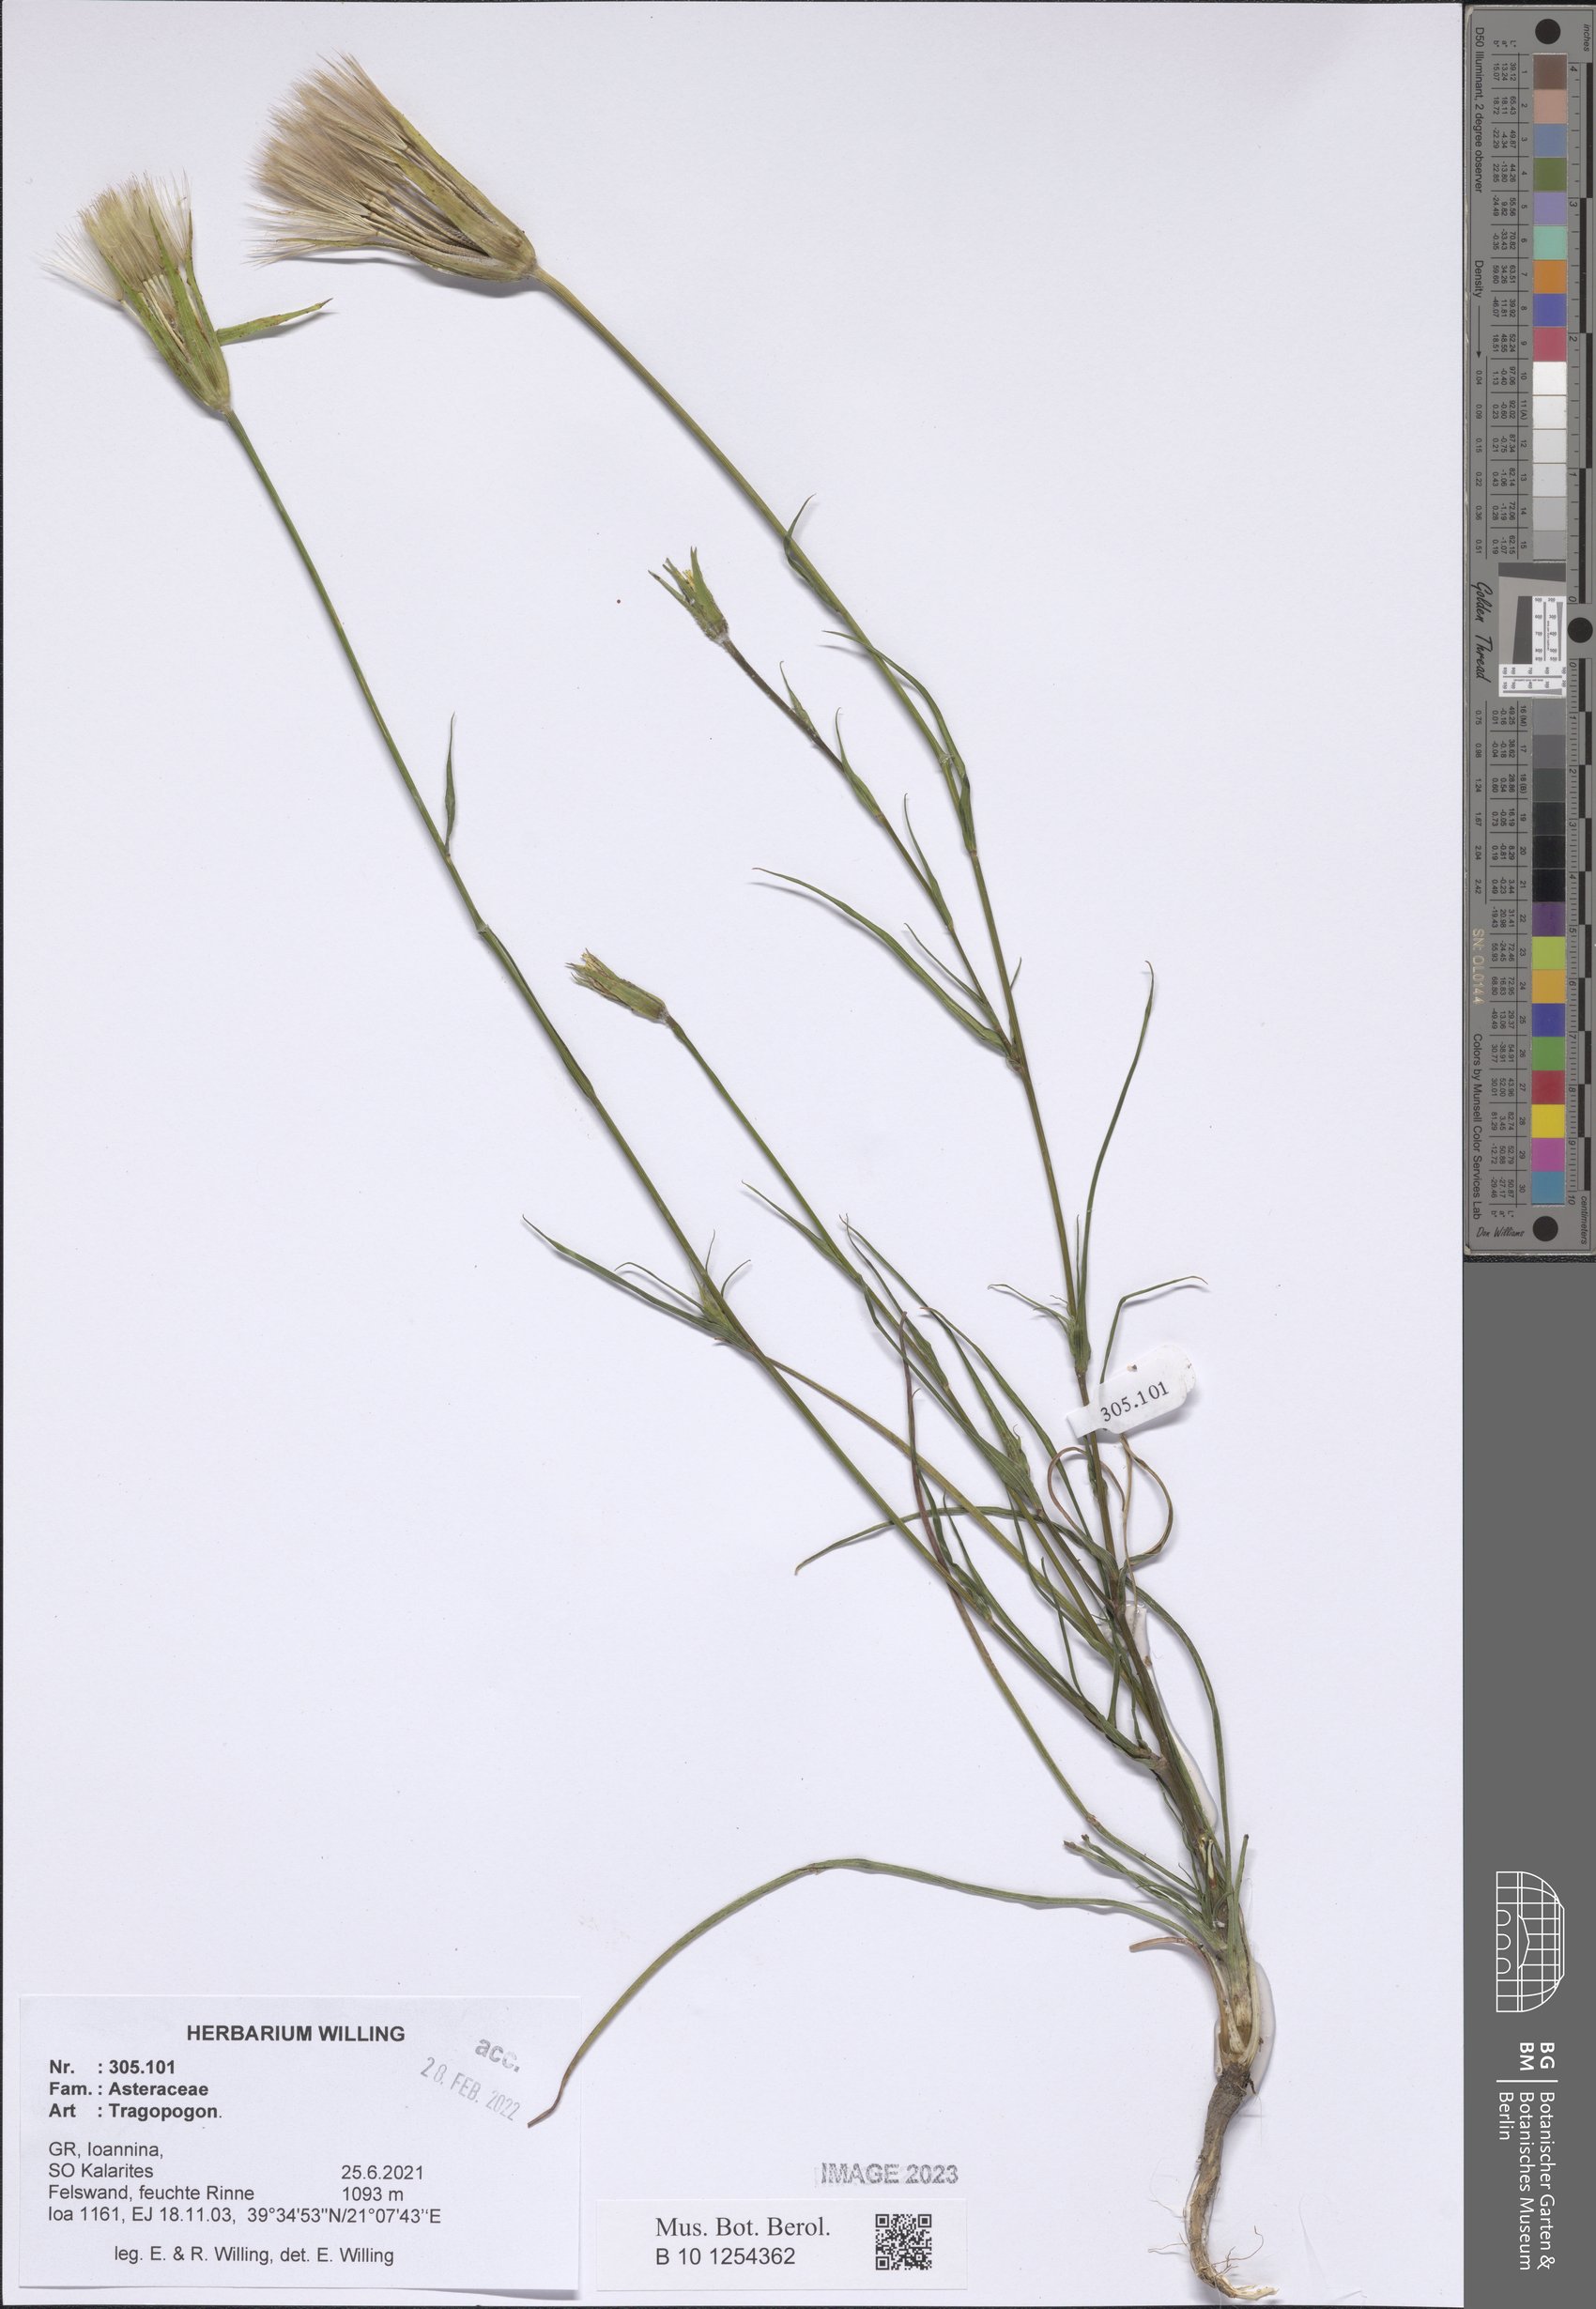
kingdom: Plantae
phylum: Tracheophyta
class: Magnoliopsida
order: Asterales
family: Asteraceae
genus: Tragopogon
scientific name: Tragopogon
